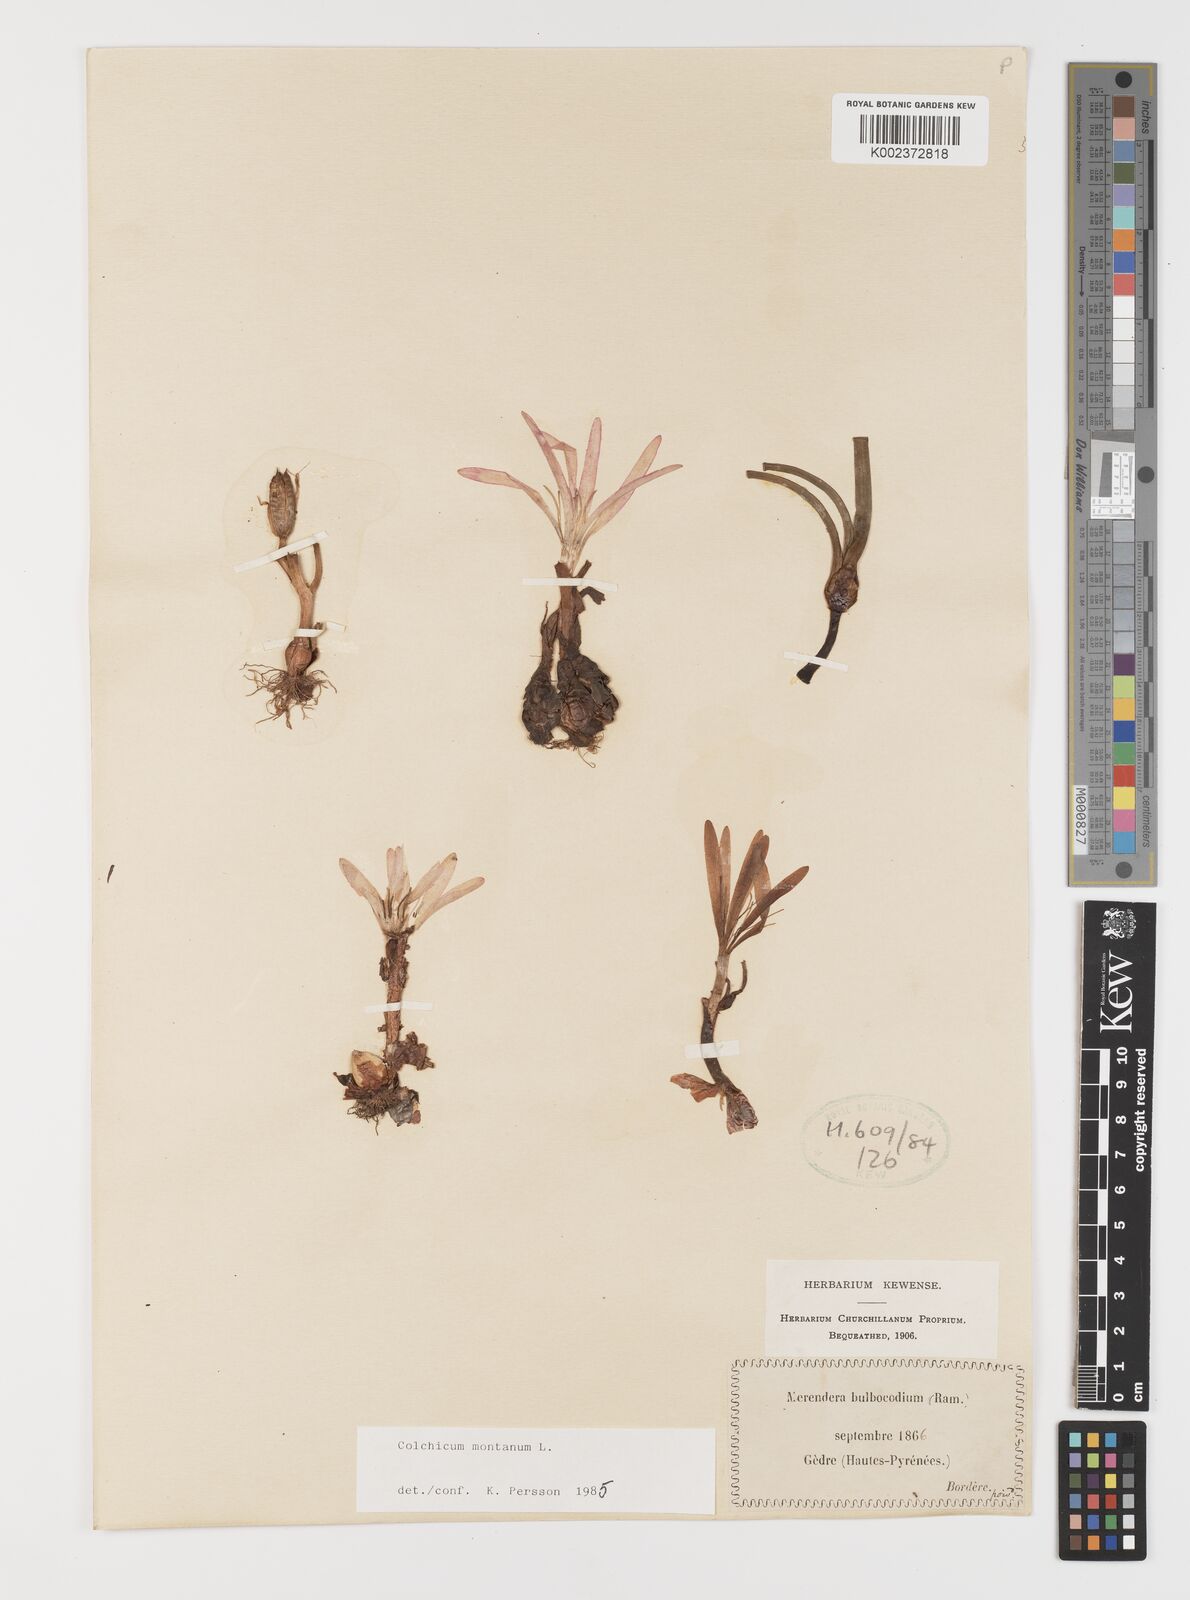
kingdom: Plantae
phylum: Tracheophyta
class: Liliopsida
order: Liliales
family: Colchicaceae
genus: Colchicum
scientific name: Colchicum montanum
